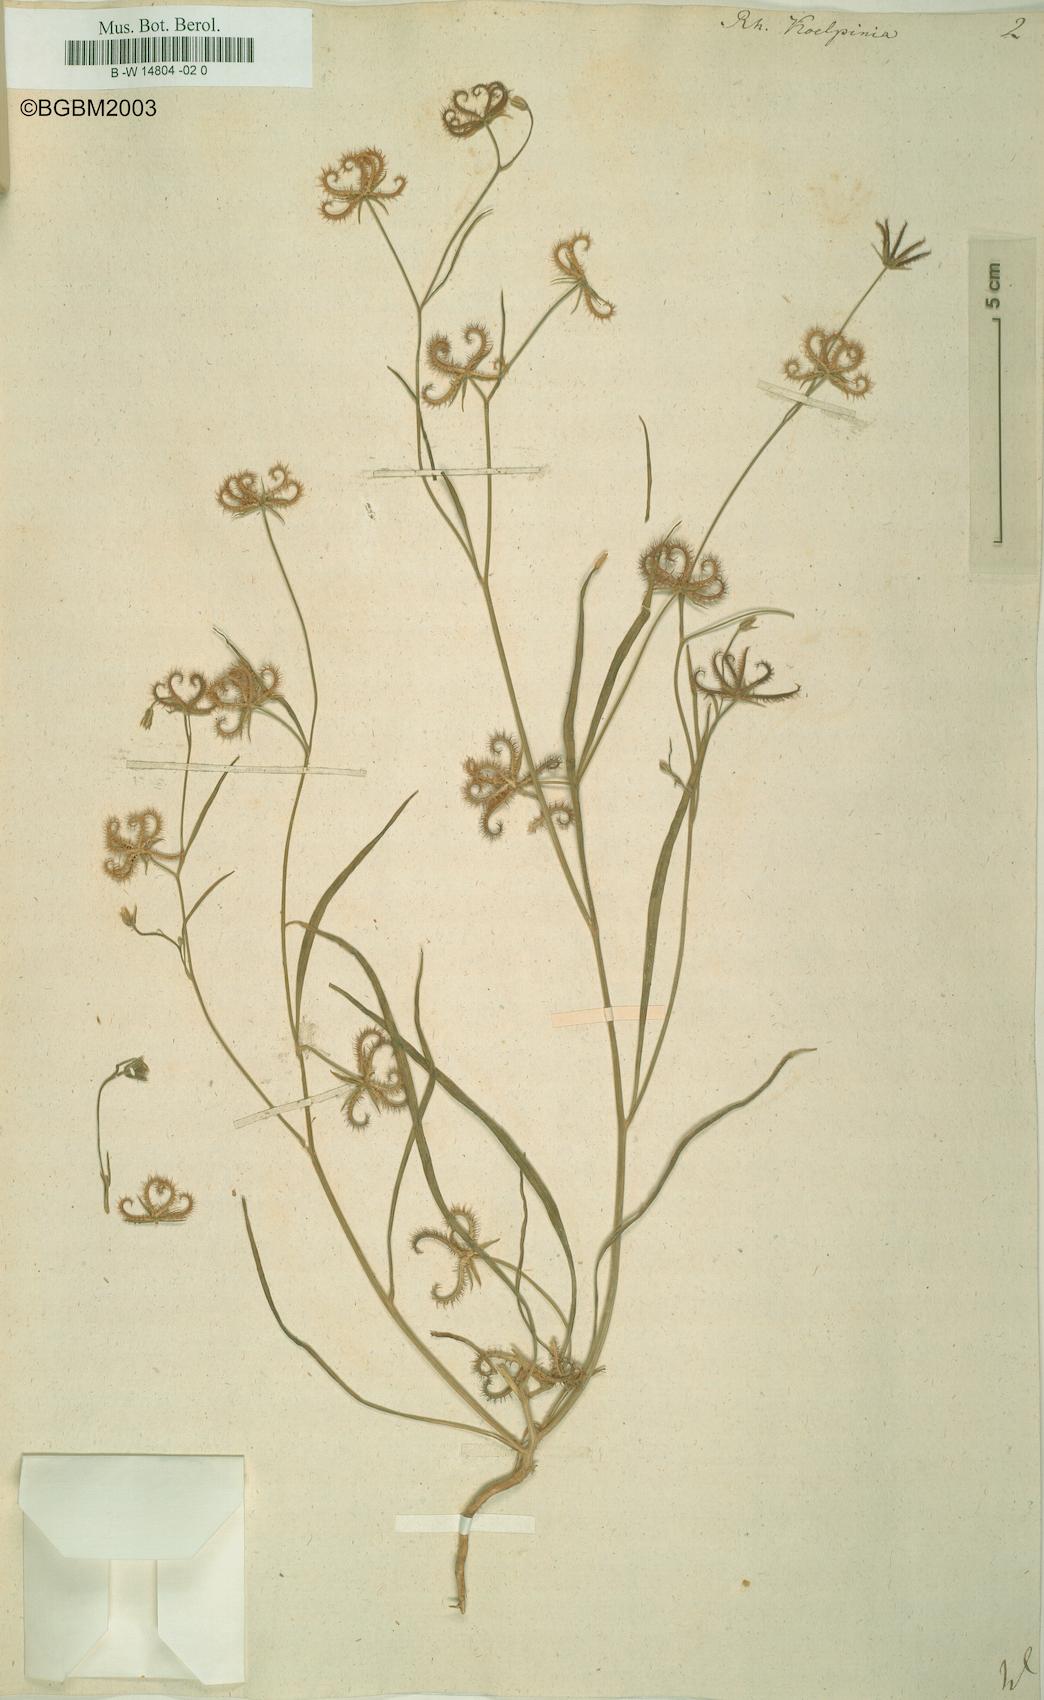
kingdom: Plantae
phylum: Tracheophyta
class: Magnoliopsida
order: Asterales
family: Asteraceae
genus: Koelpinia
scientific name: Koelpinia linearis
